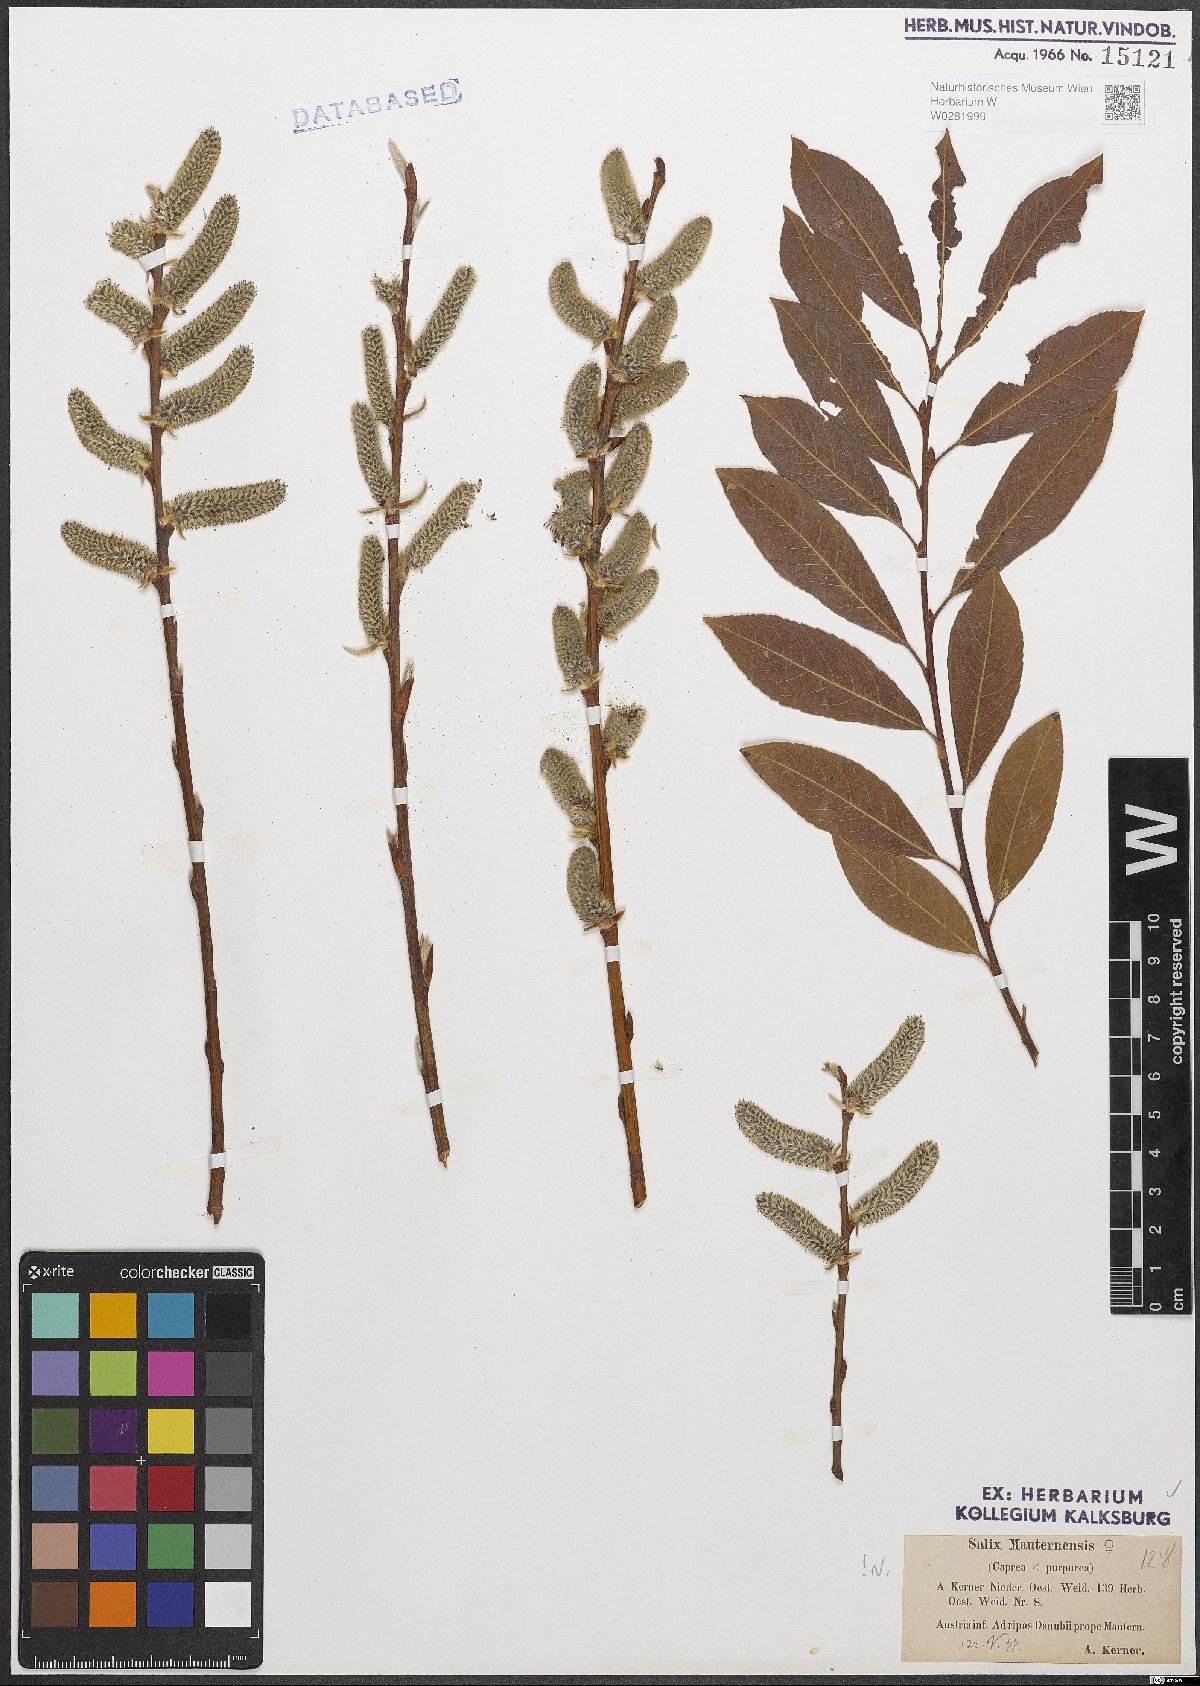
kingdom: Plantae
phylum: Tracheophyta
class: Magnoliopsida
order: Malpighiales
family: Salicaceae
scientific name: Salicaceae
